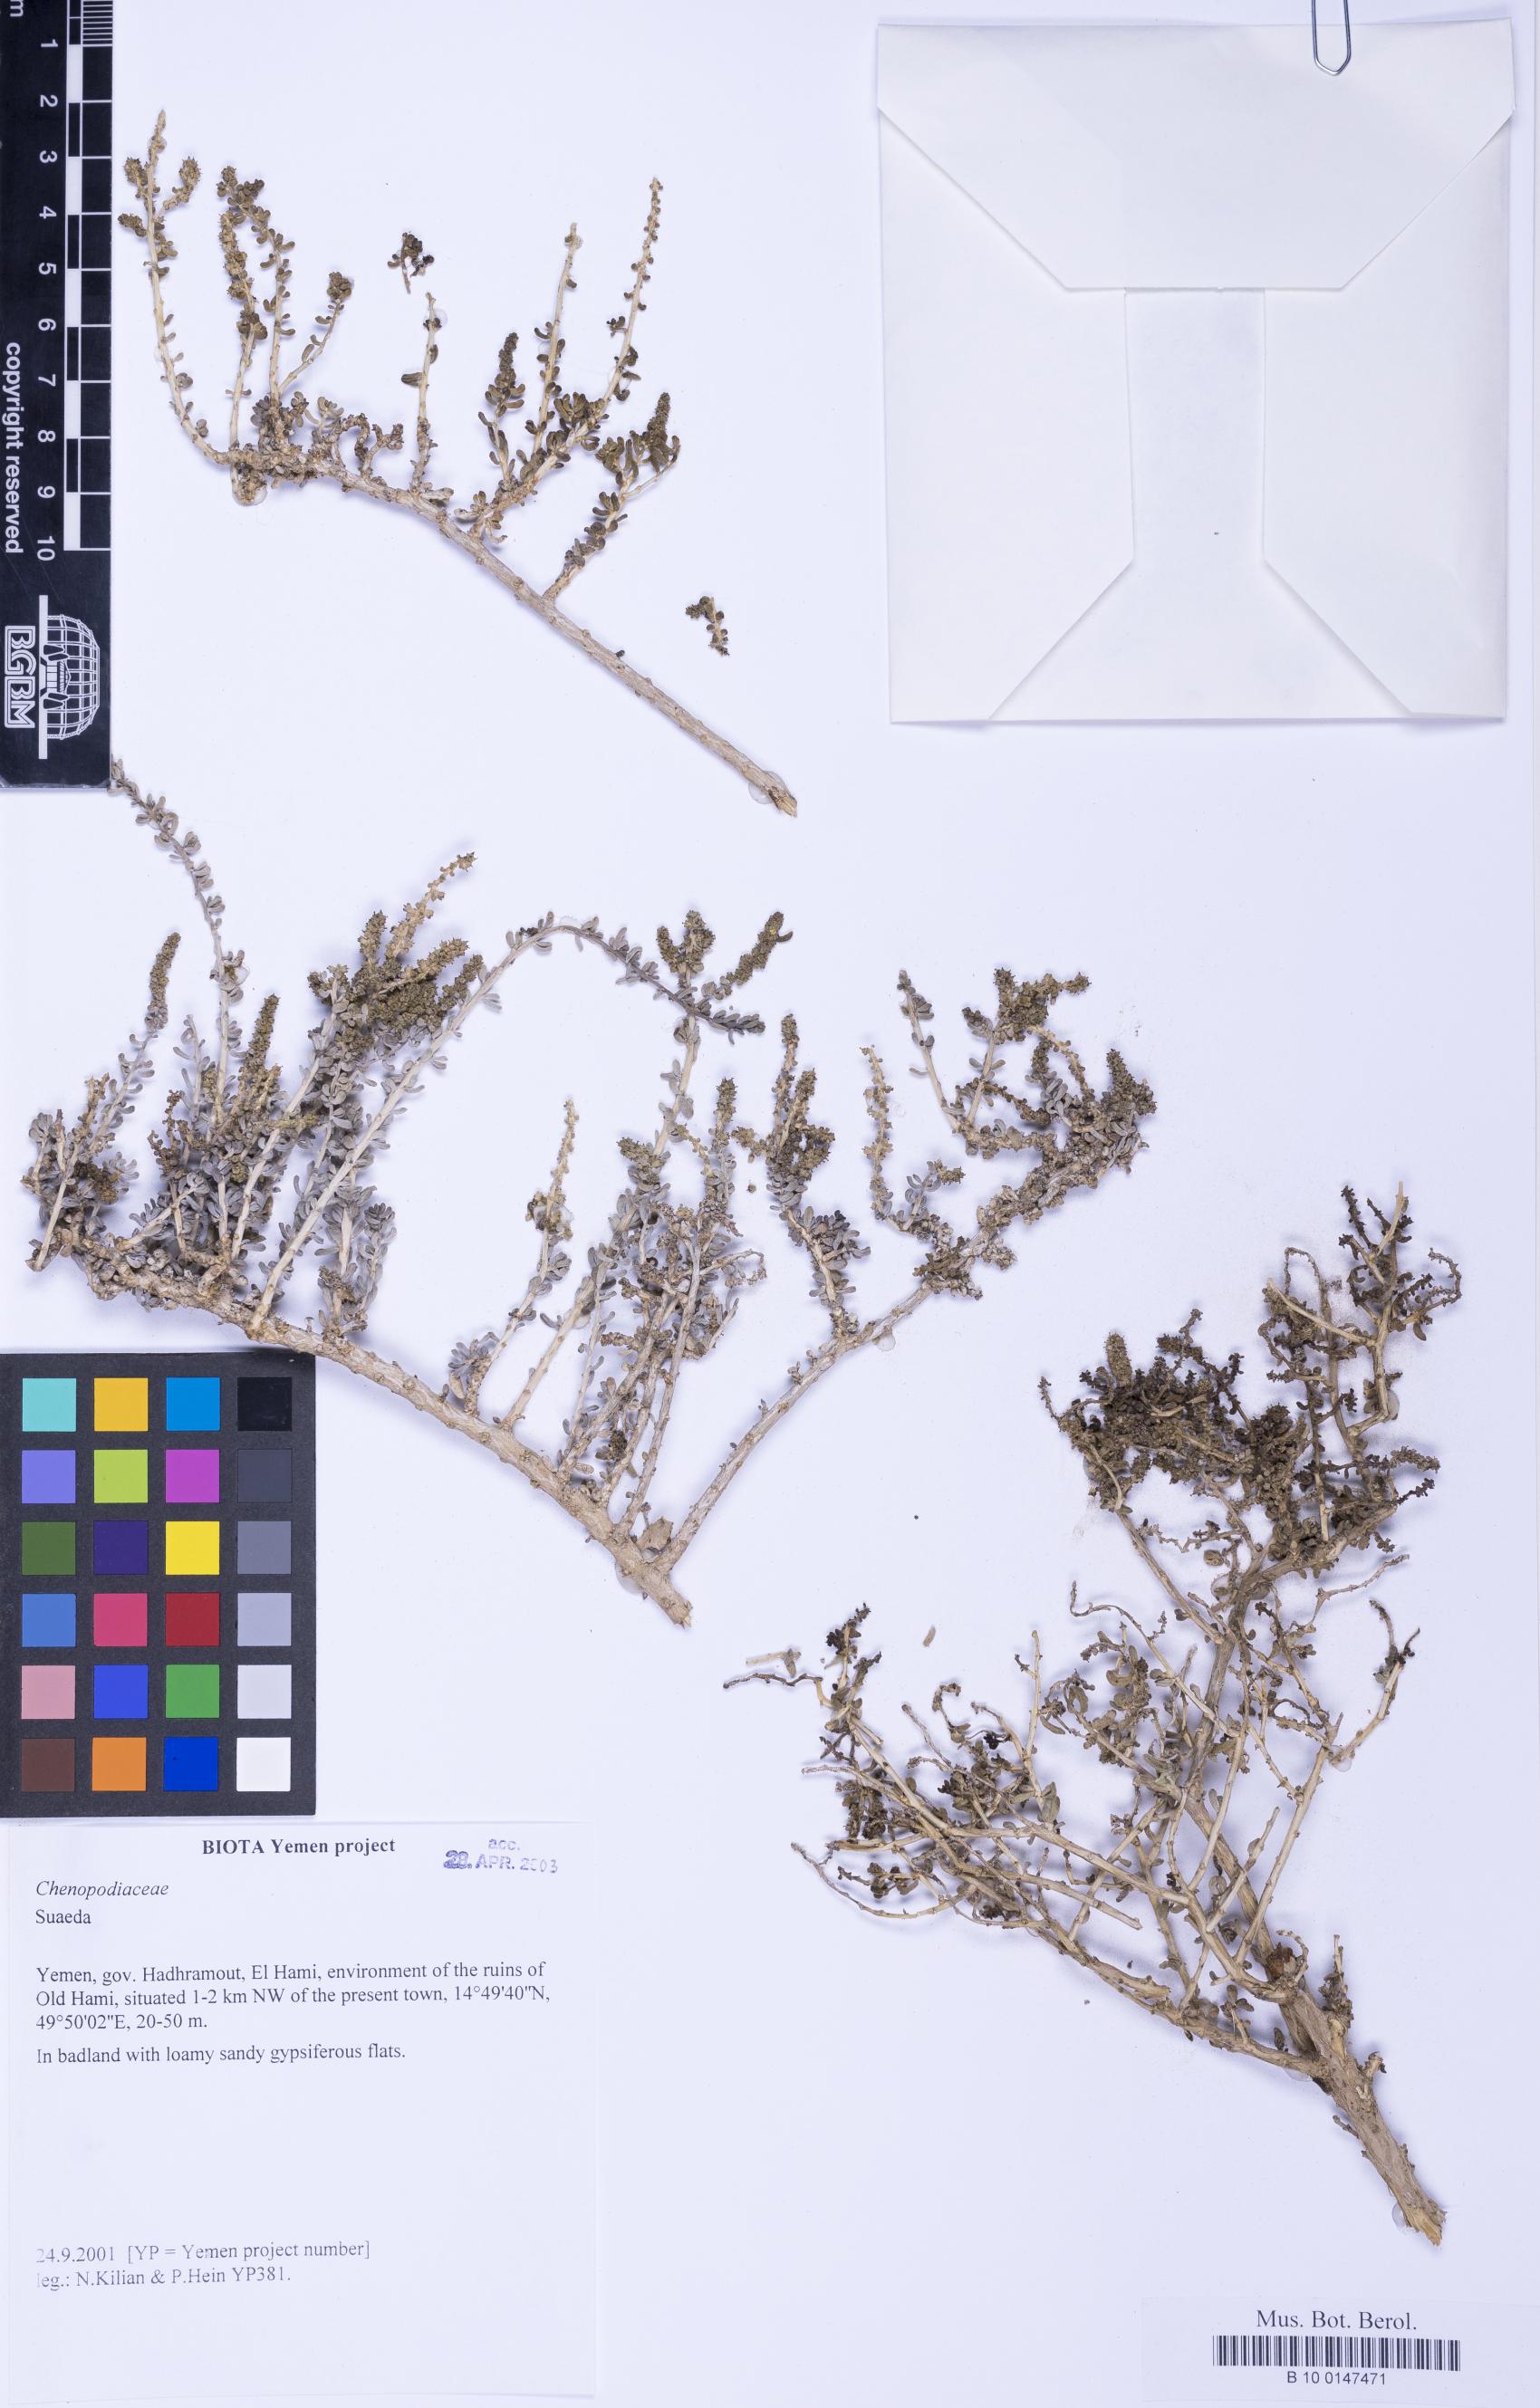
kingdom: Plantae
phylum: Tracheophyta
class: Magnoliopsida
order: Caryophyllales
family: Amaranthaceae
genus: Suaeda
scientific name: Suaeda
